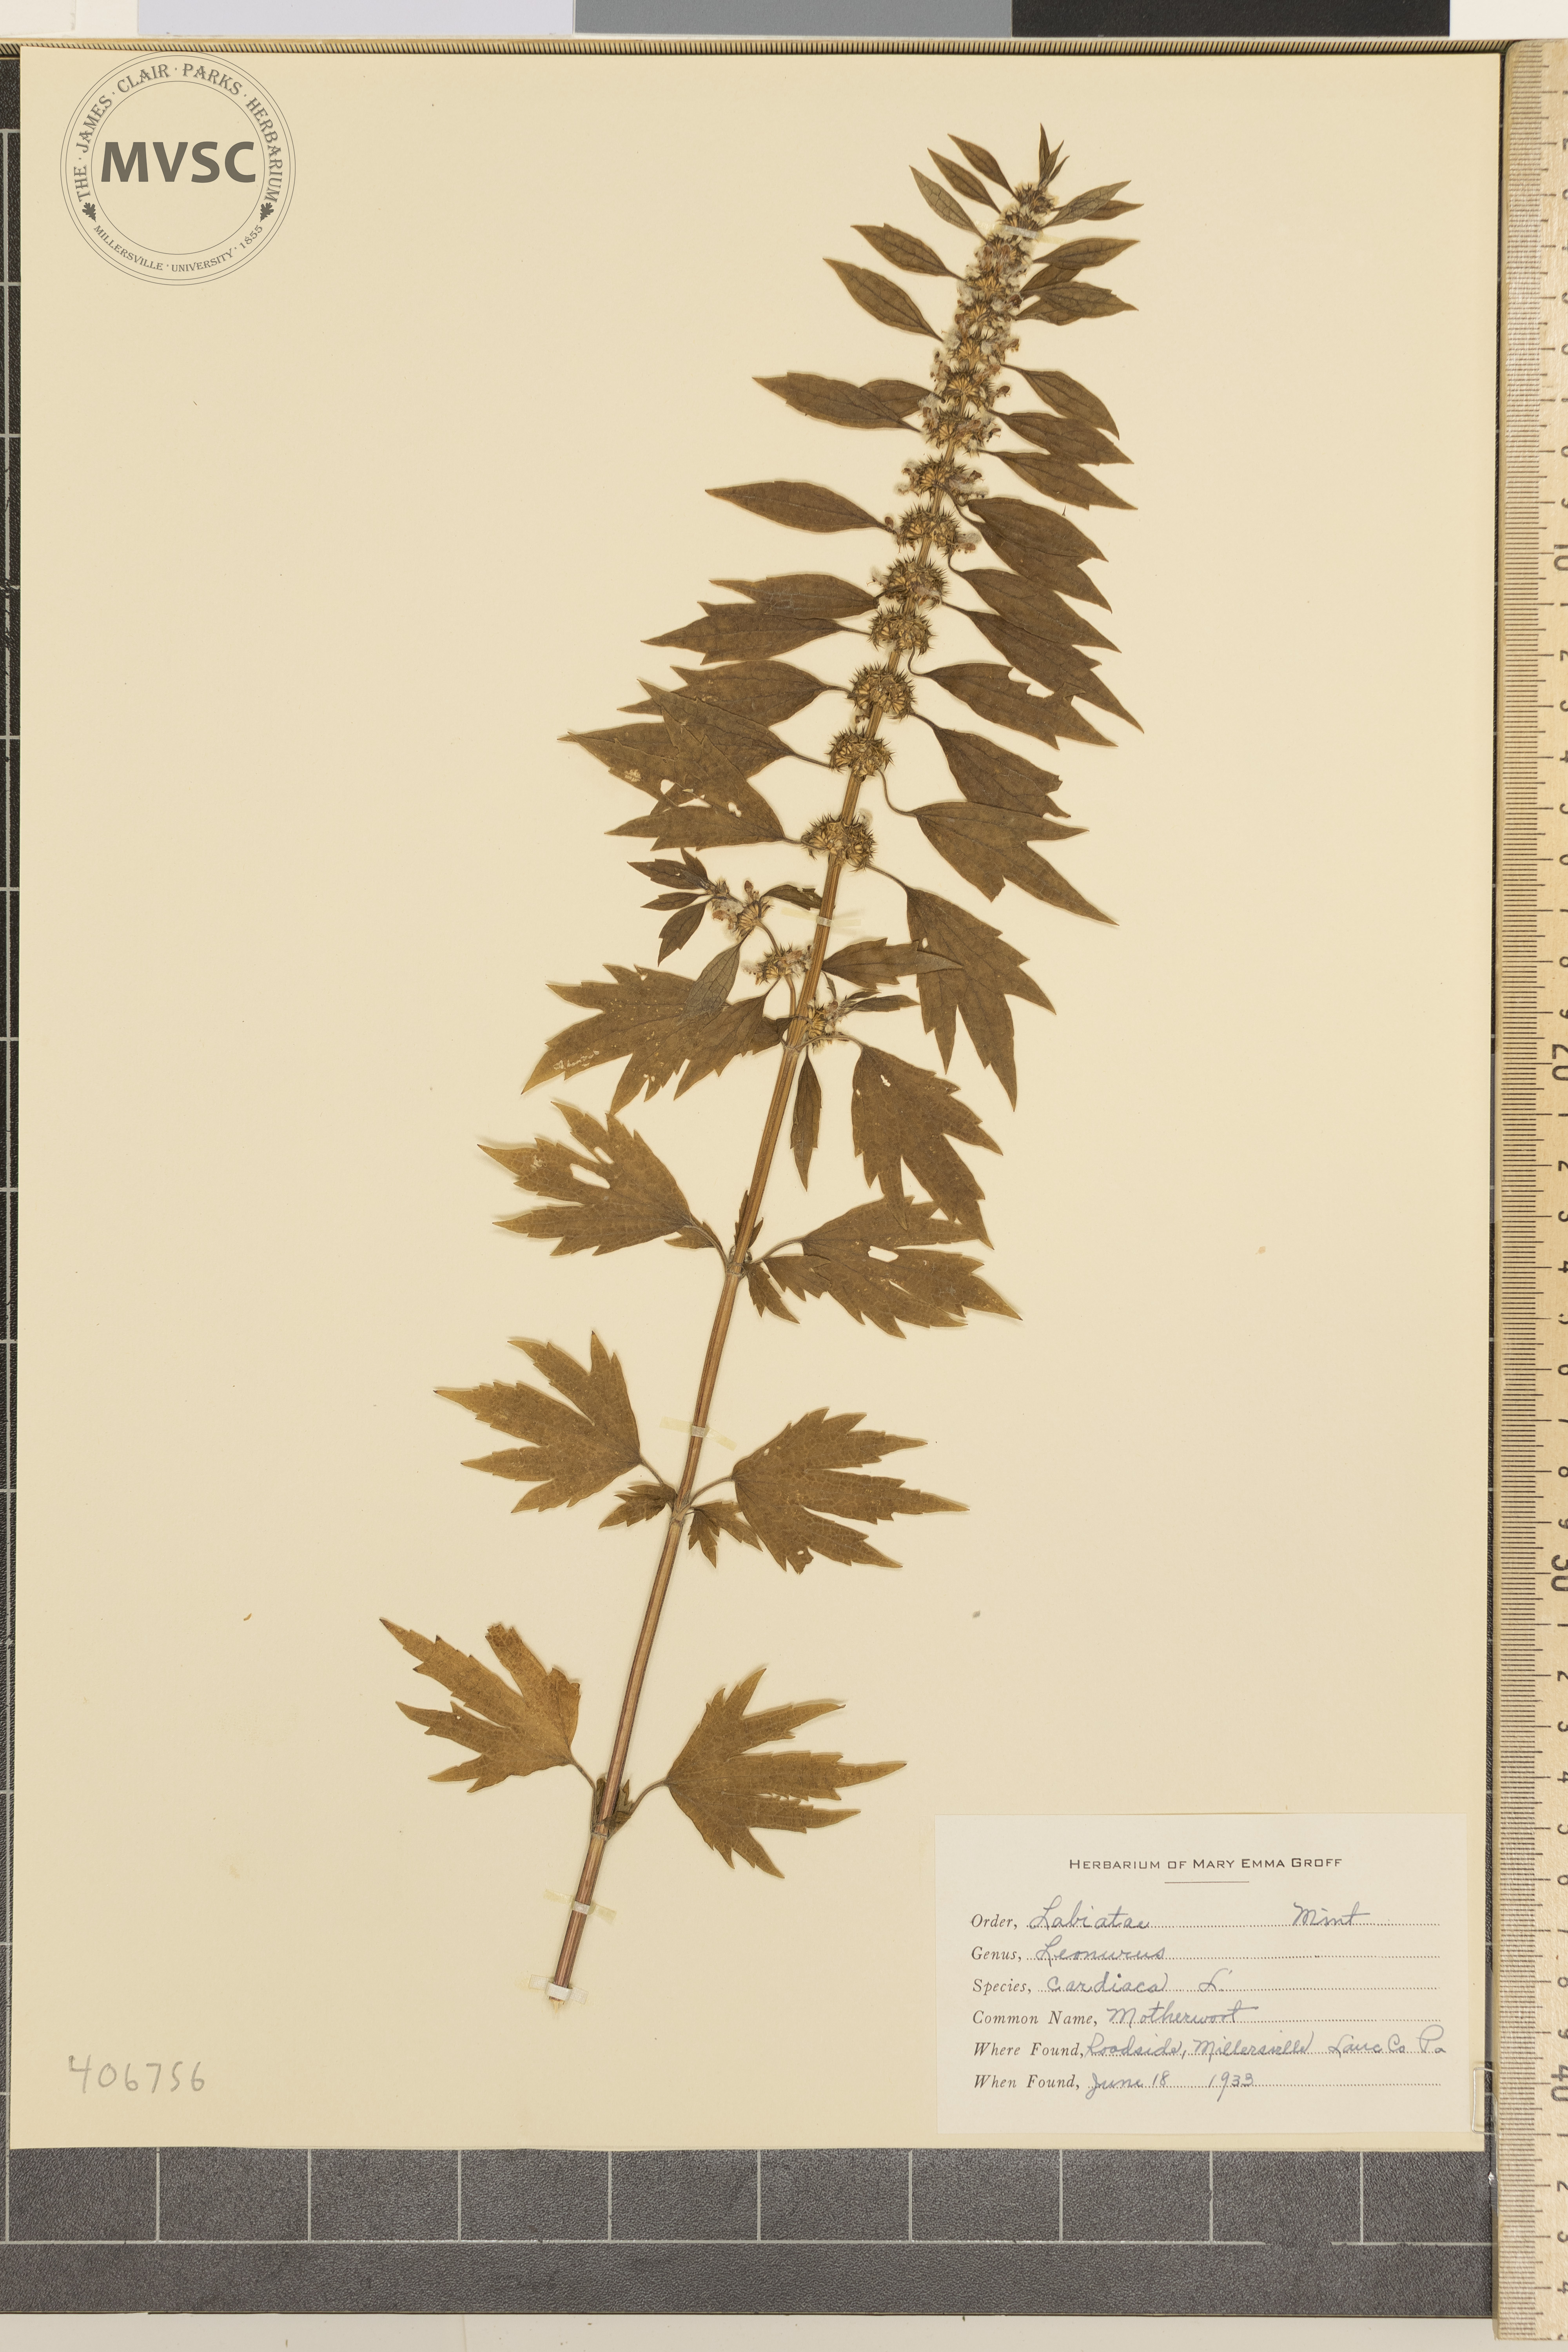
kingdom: Plantae
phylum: Tracheophyta
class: Magnoliopsida
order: Lamiales
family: Lamiaceae
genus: Leonurus
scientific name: Leonurus cardiaca
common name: Motherwort
